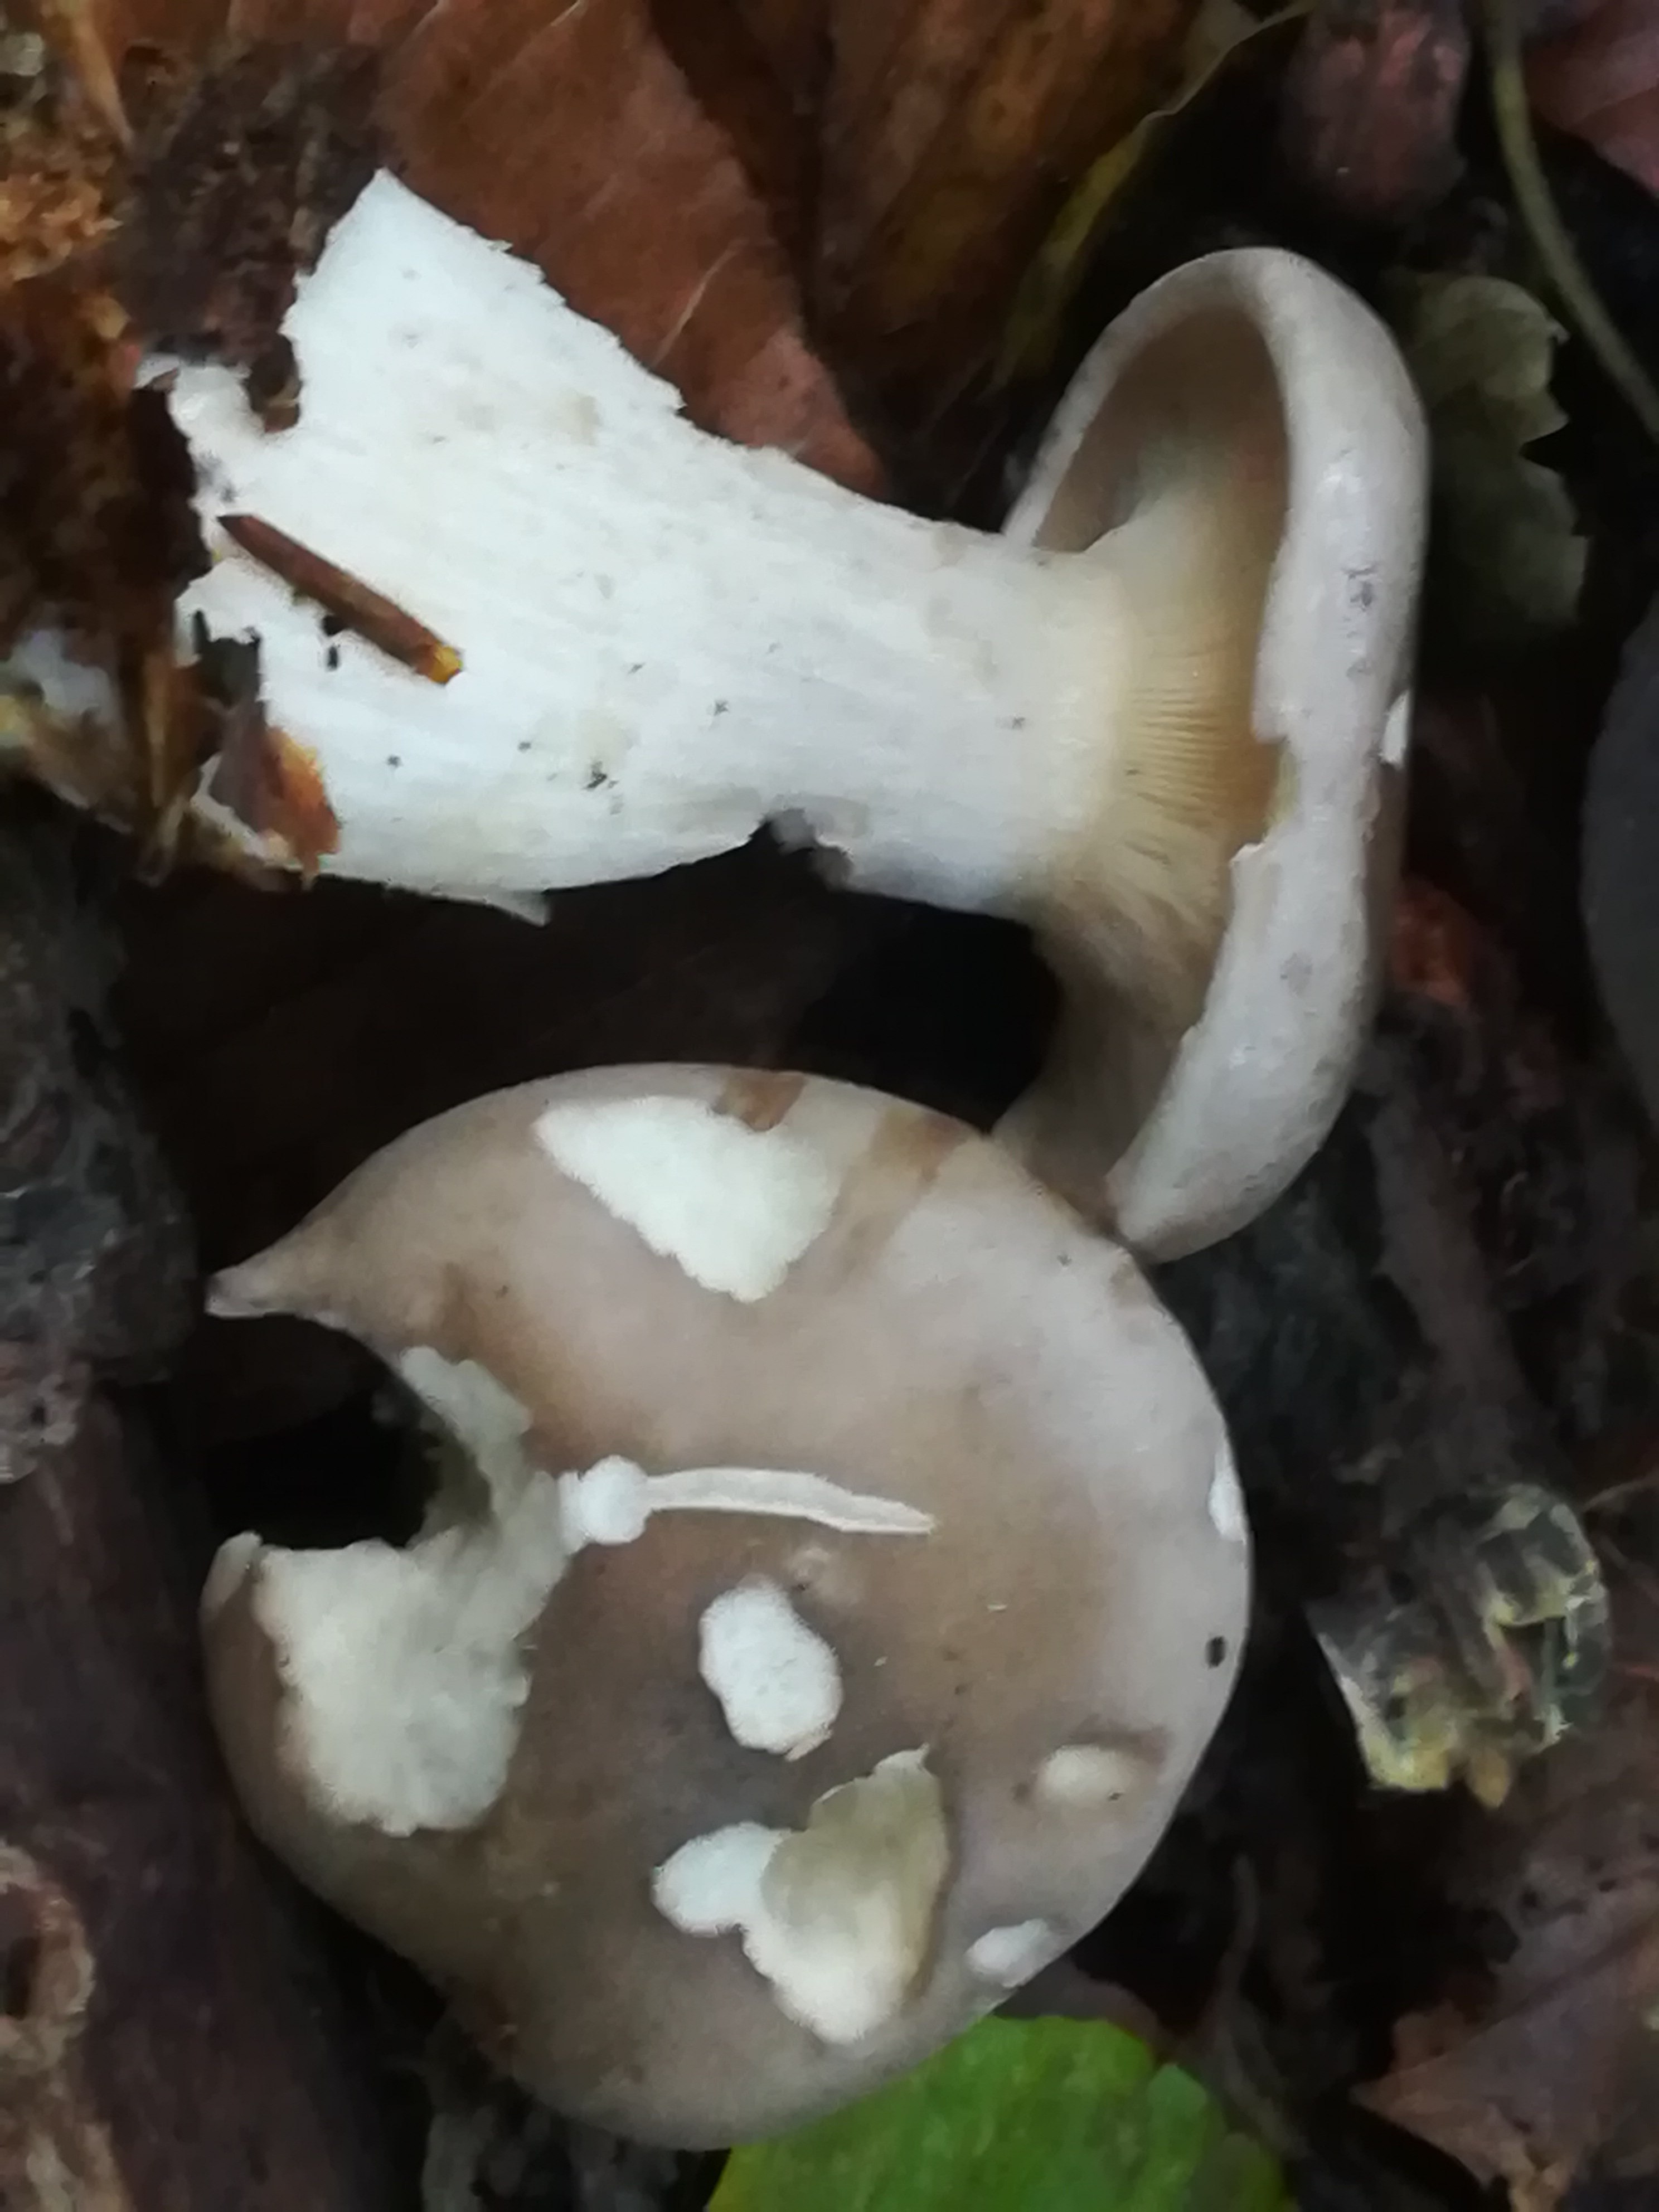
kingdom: Fungi
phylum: Basidiomycota
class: Agaricomycetes
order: Agaricales
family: Tricholomataceae
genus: Clitocybe
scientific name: Clitocybe nebularis
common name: tåge-tragthat
